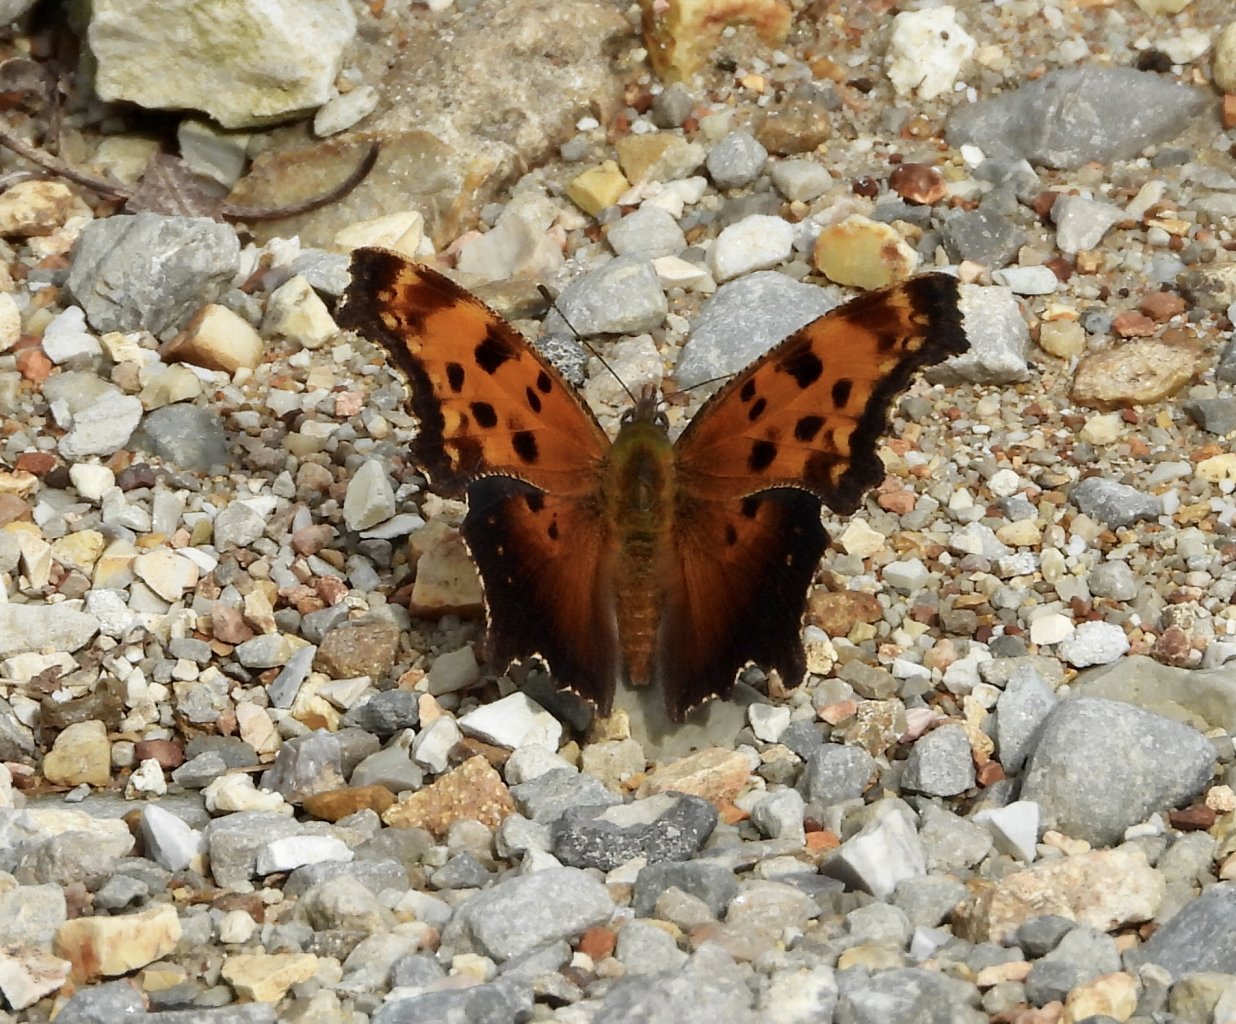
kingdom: Animalia
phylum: Arthropoda
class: Insecta
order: Lepidoptera
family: Nymphalidae
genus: Polygonia
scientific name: Polygonia progne
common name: Gray Comma
